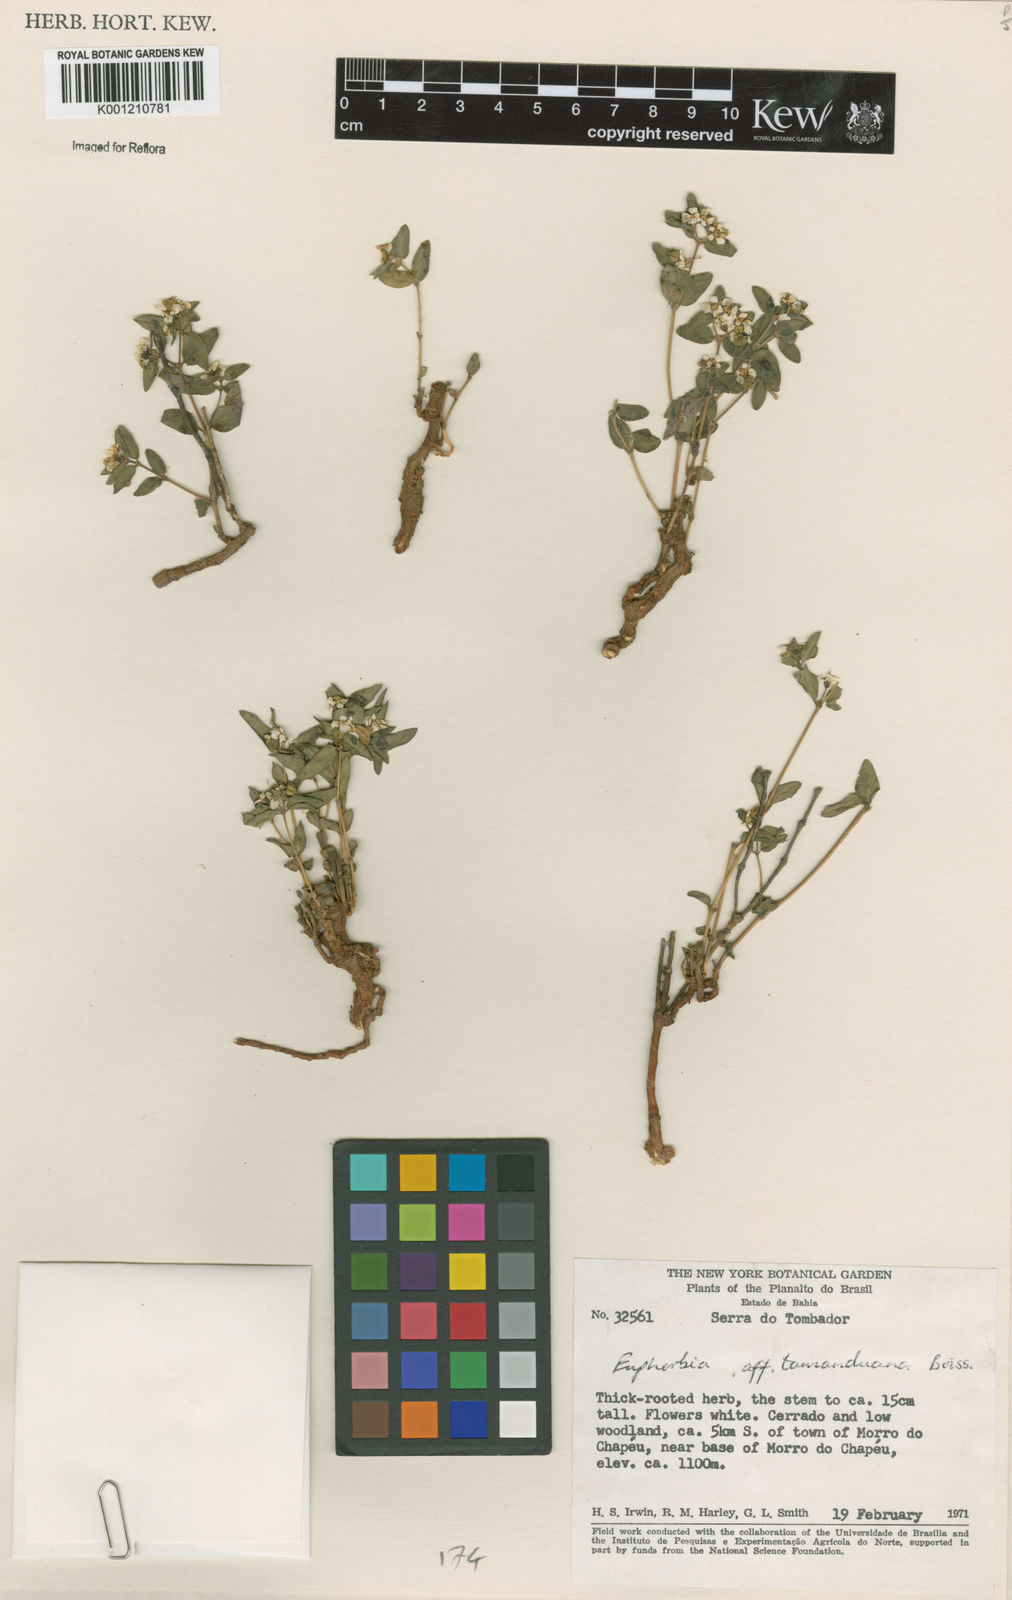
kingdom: Plantae
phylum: Tracheophyta
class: Magnoliopsida
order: Malpighiales
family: Euphorbiaceae
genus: Euphorbia
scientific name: Euphorbia potentilloides
